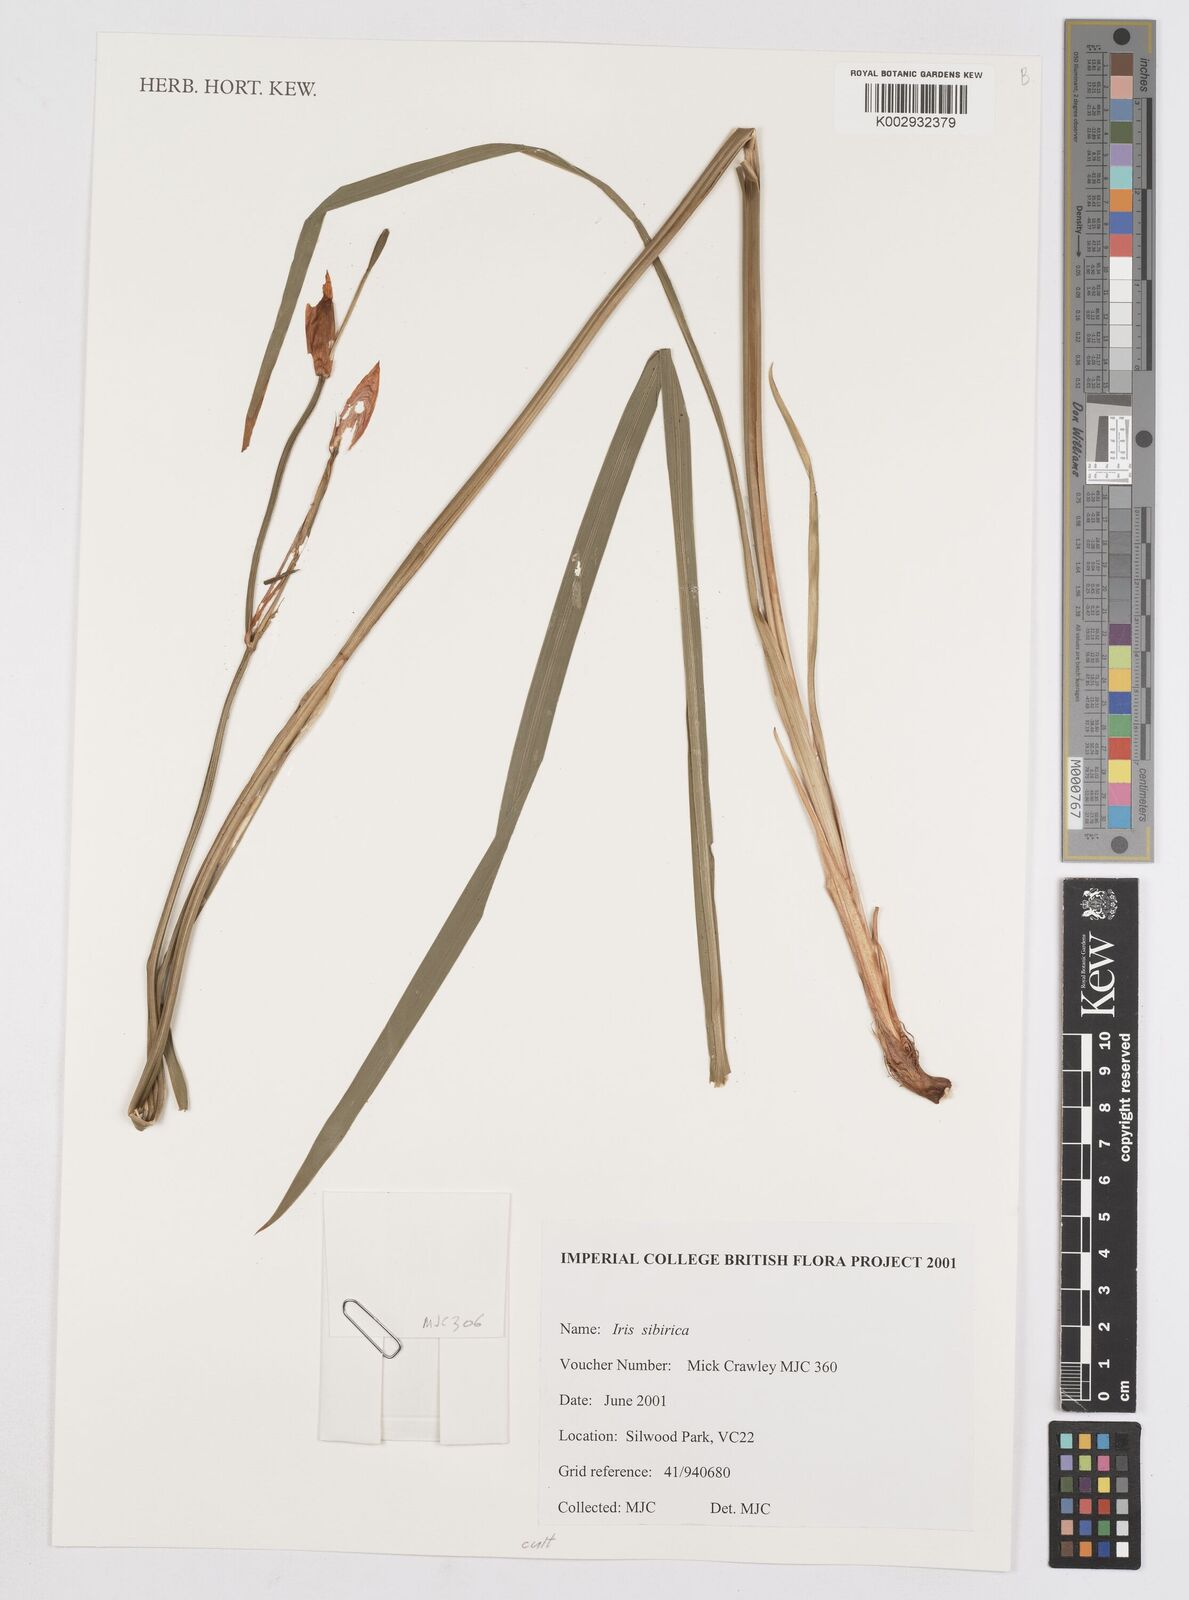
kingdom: Plantae
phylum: Tracheophyta
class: Liliopsida
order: Asparagales
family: Iridaceae
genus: Iris
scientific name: Iris sibirica
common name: Siberian iris
